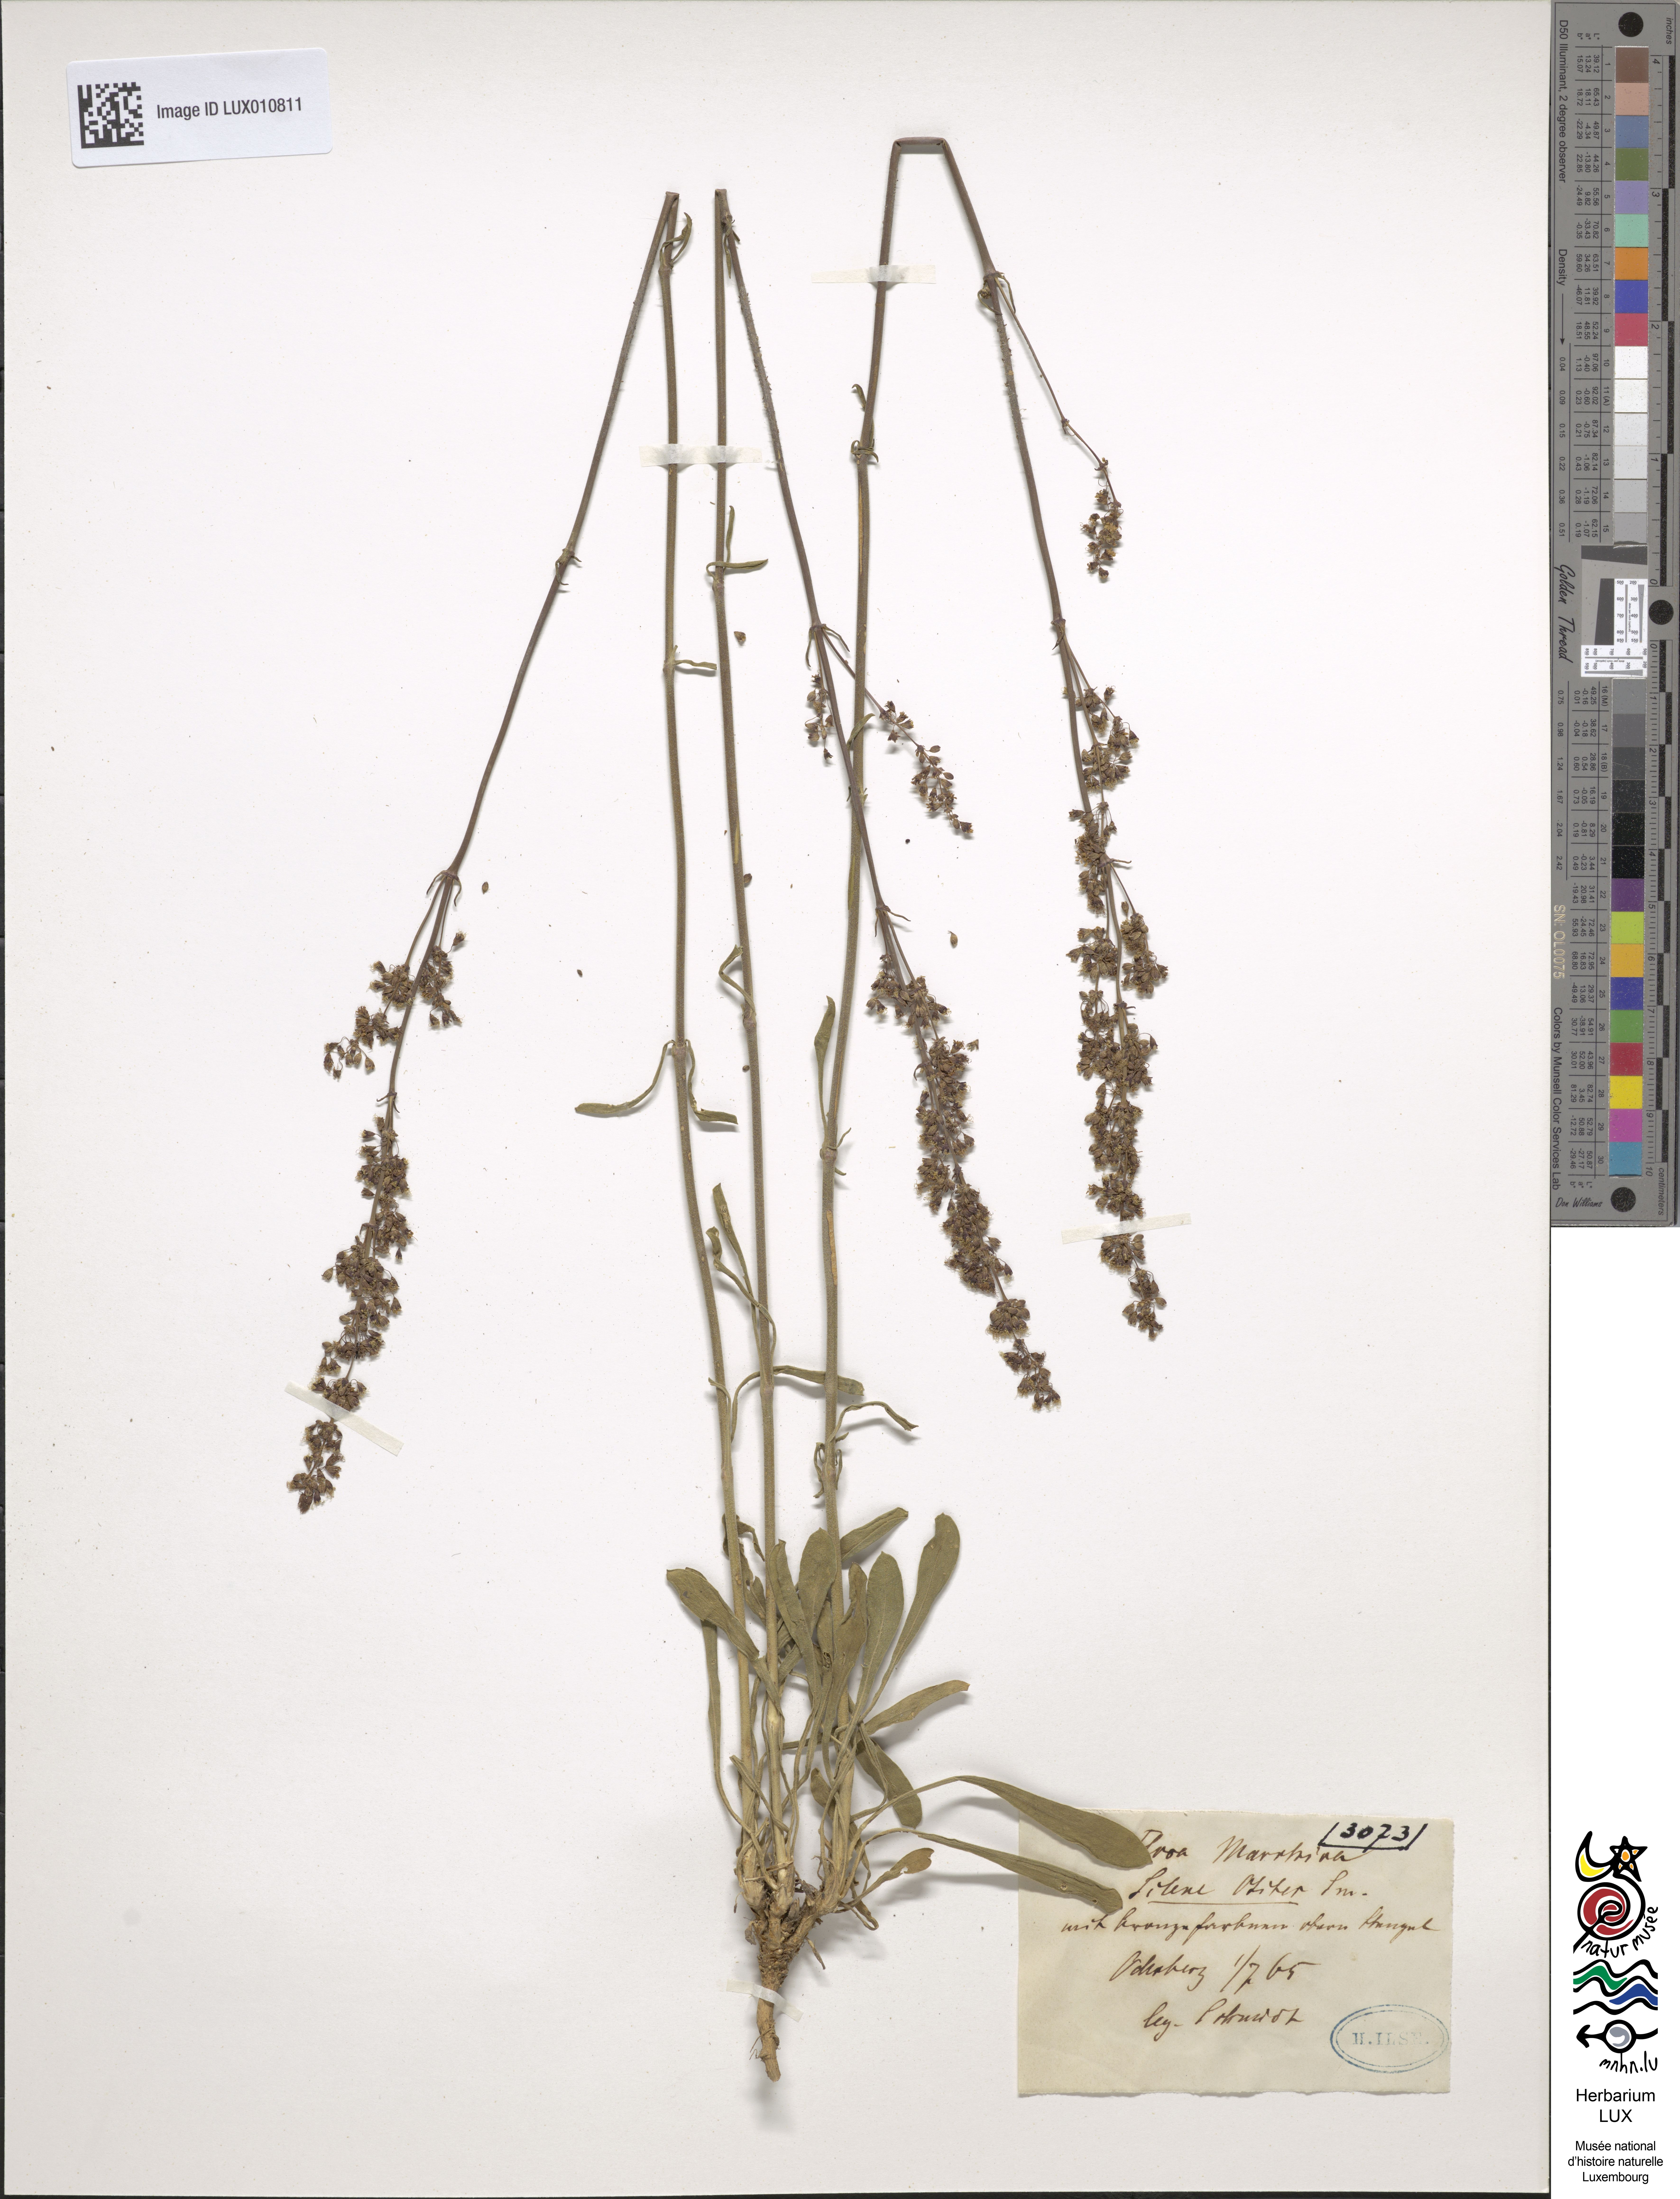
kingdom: Plantae
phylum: Tracheophyta
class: Magnoliopsida
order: Caryophyllales
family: Caryophyllaceae
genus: Silene
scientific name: Silene otites
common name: Spanish catchfly
